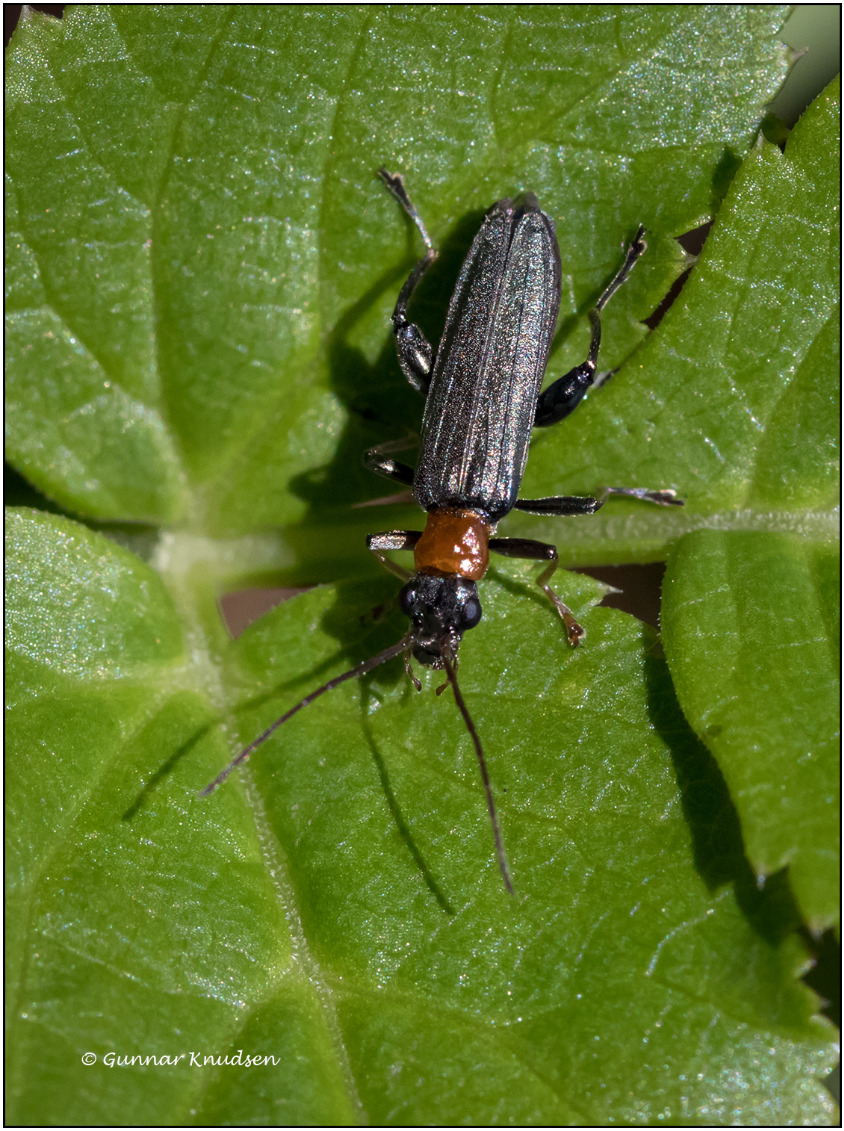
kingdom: Animalia
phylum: Arthropoda
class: Insecta
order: Coleoptera
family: Oedemeridae
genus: Oedemera
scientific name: Oedemera croceicollis
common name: Orangebrystet solbille
